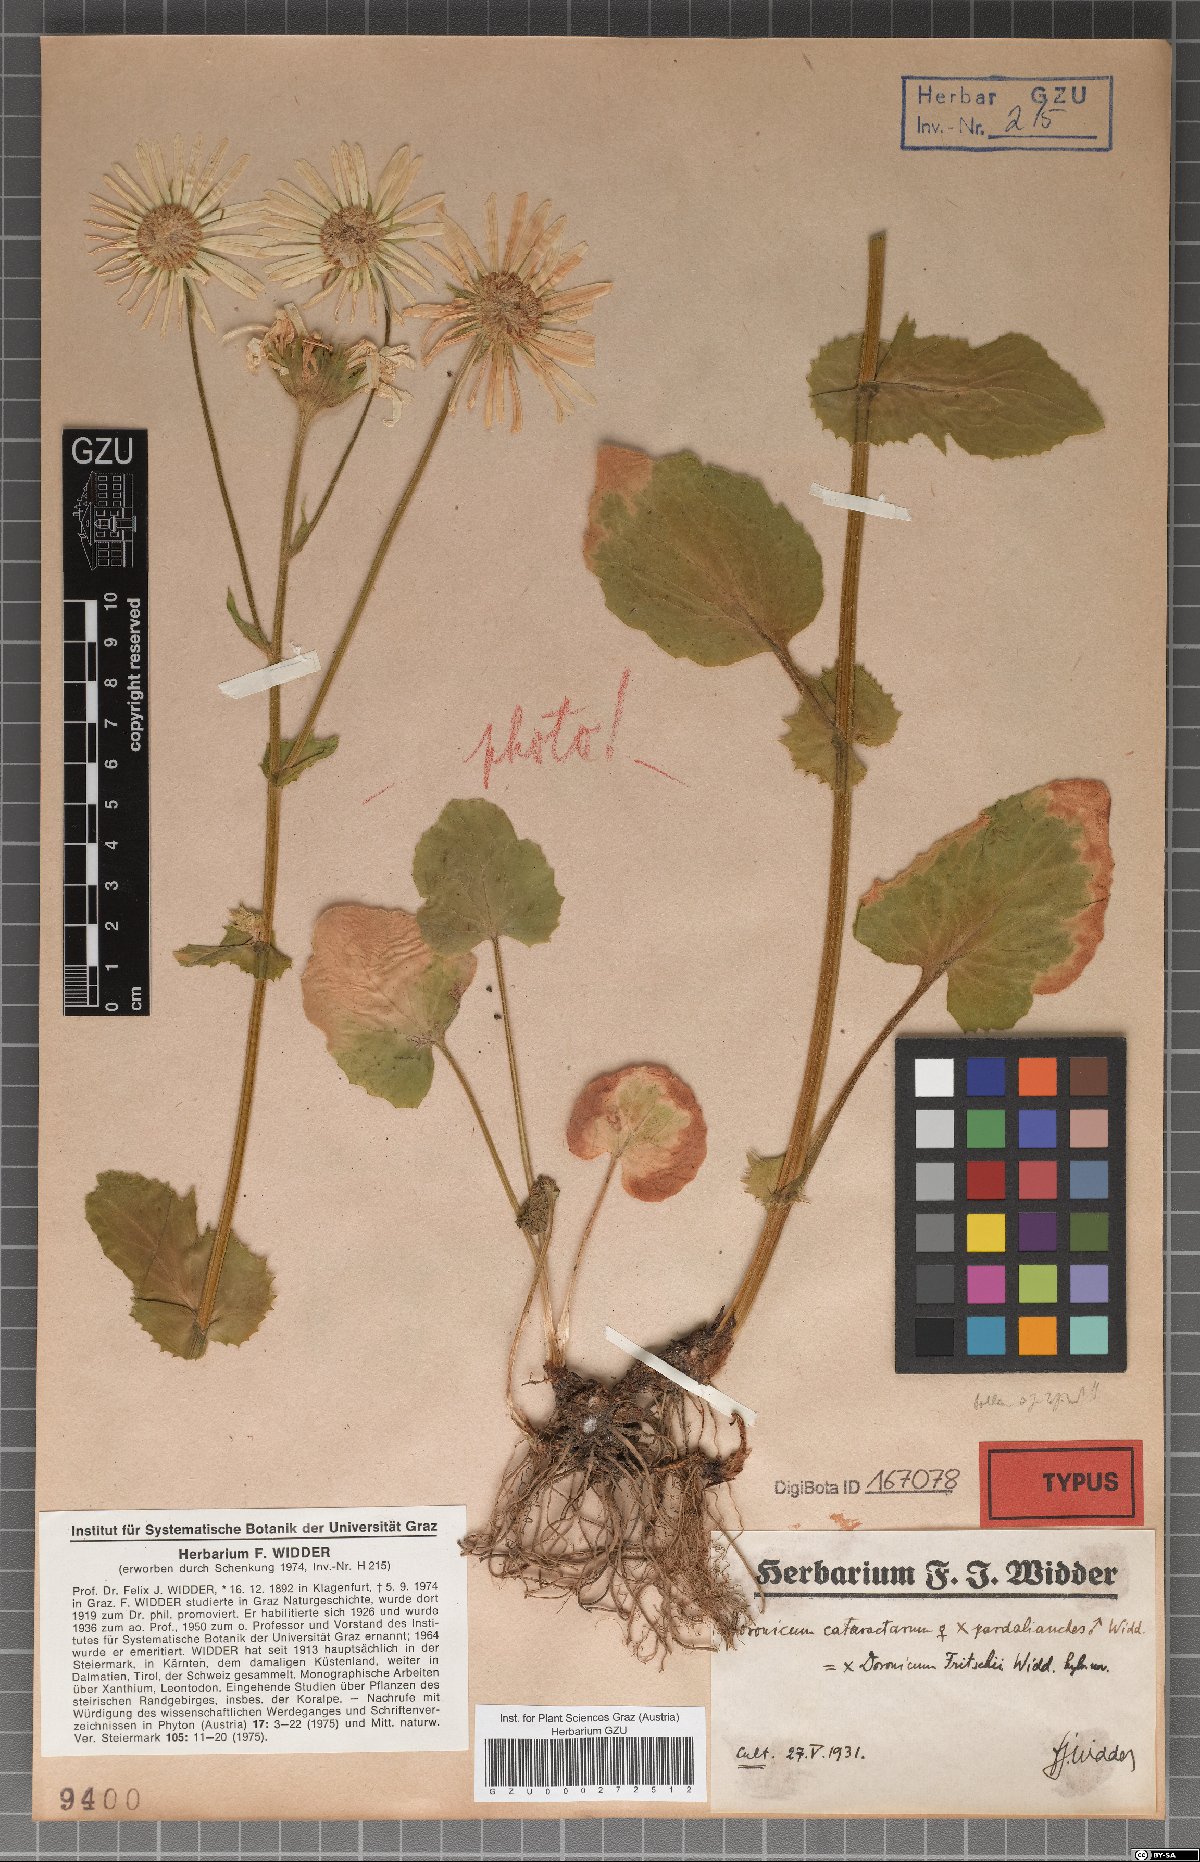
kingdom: Plantae
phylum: Tracheophyta
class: Magnoliopsida
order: Asterales
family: Asteraceae
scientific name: Asteraceae
